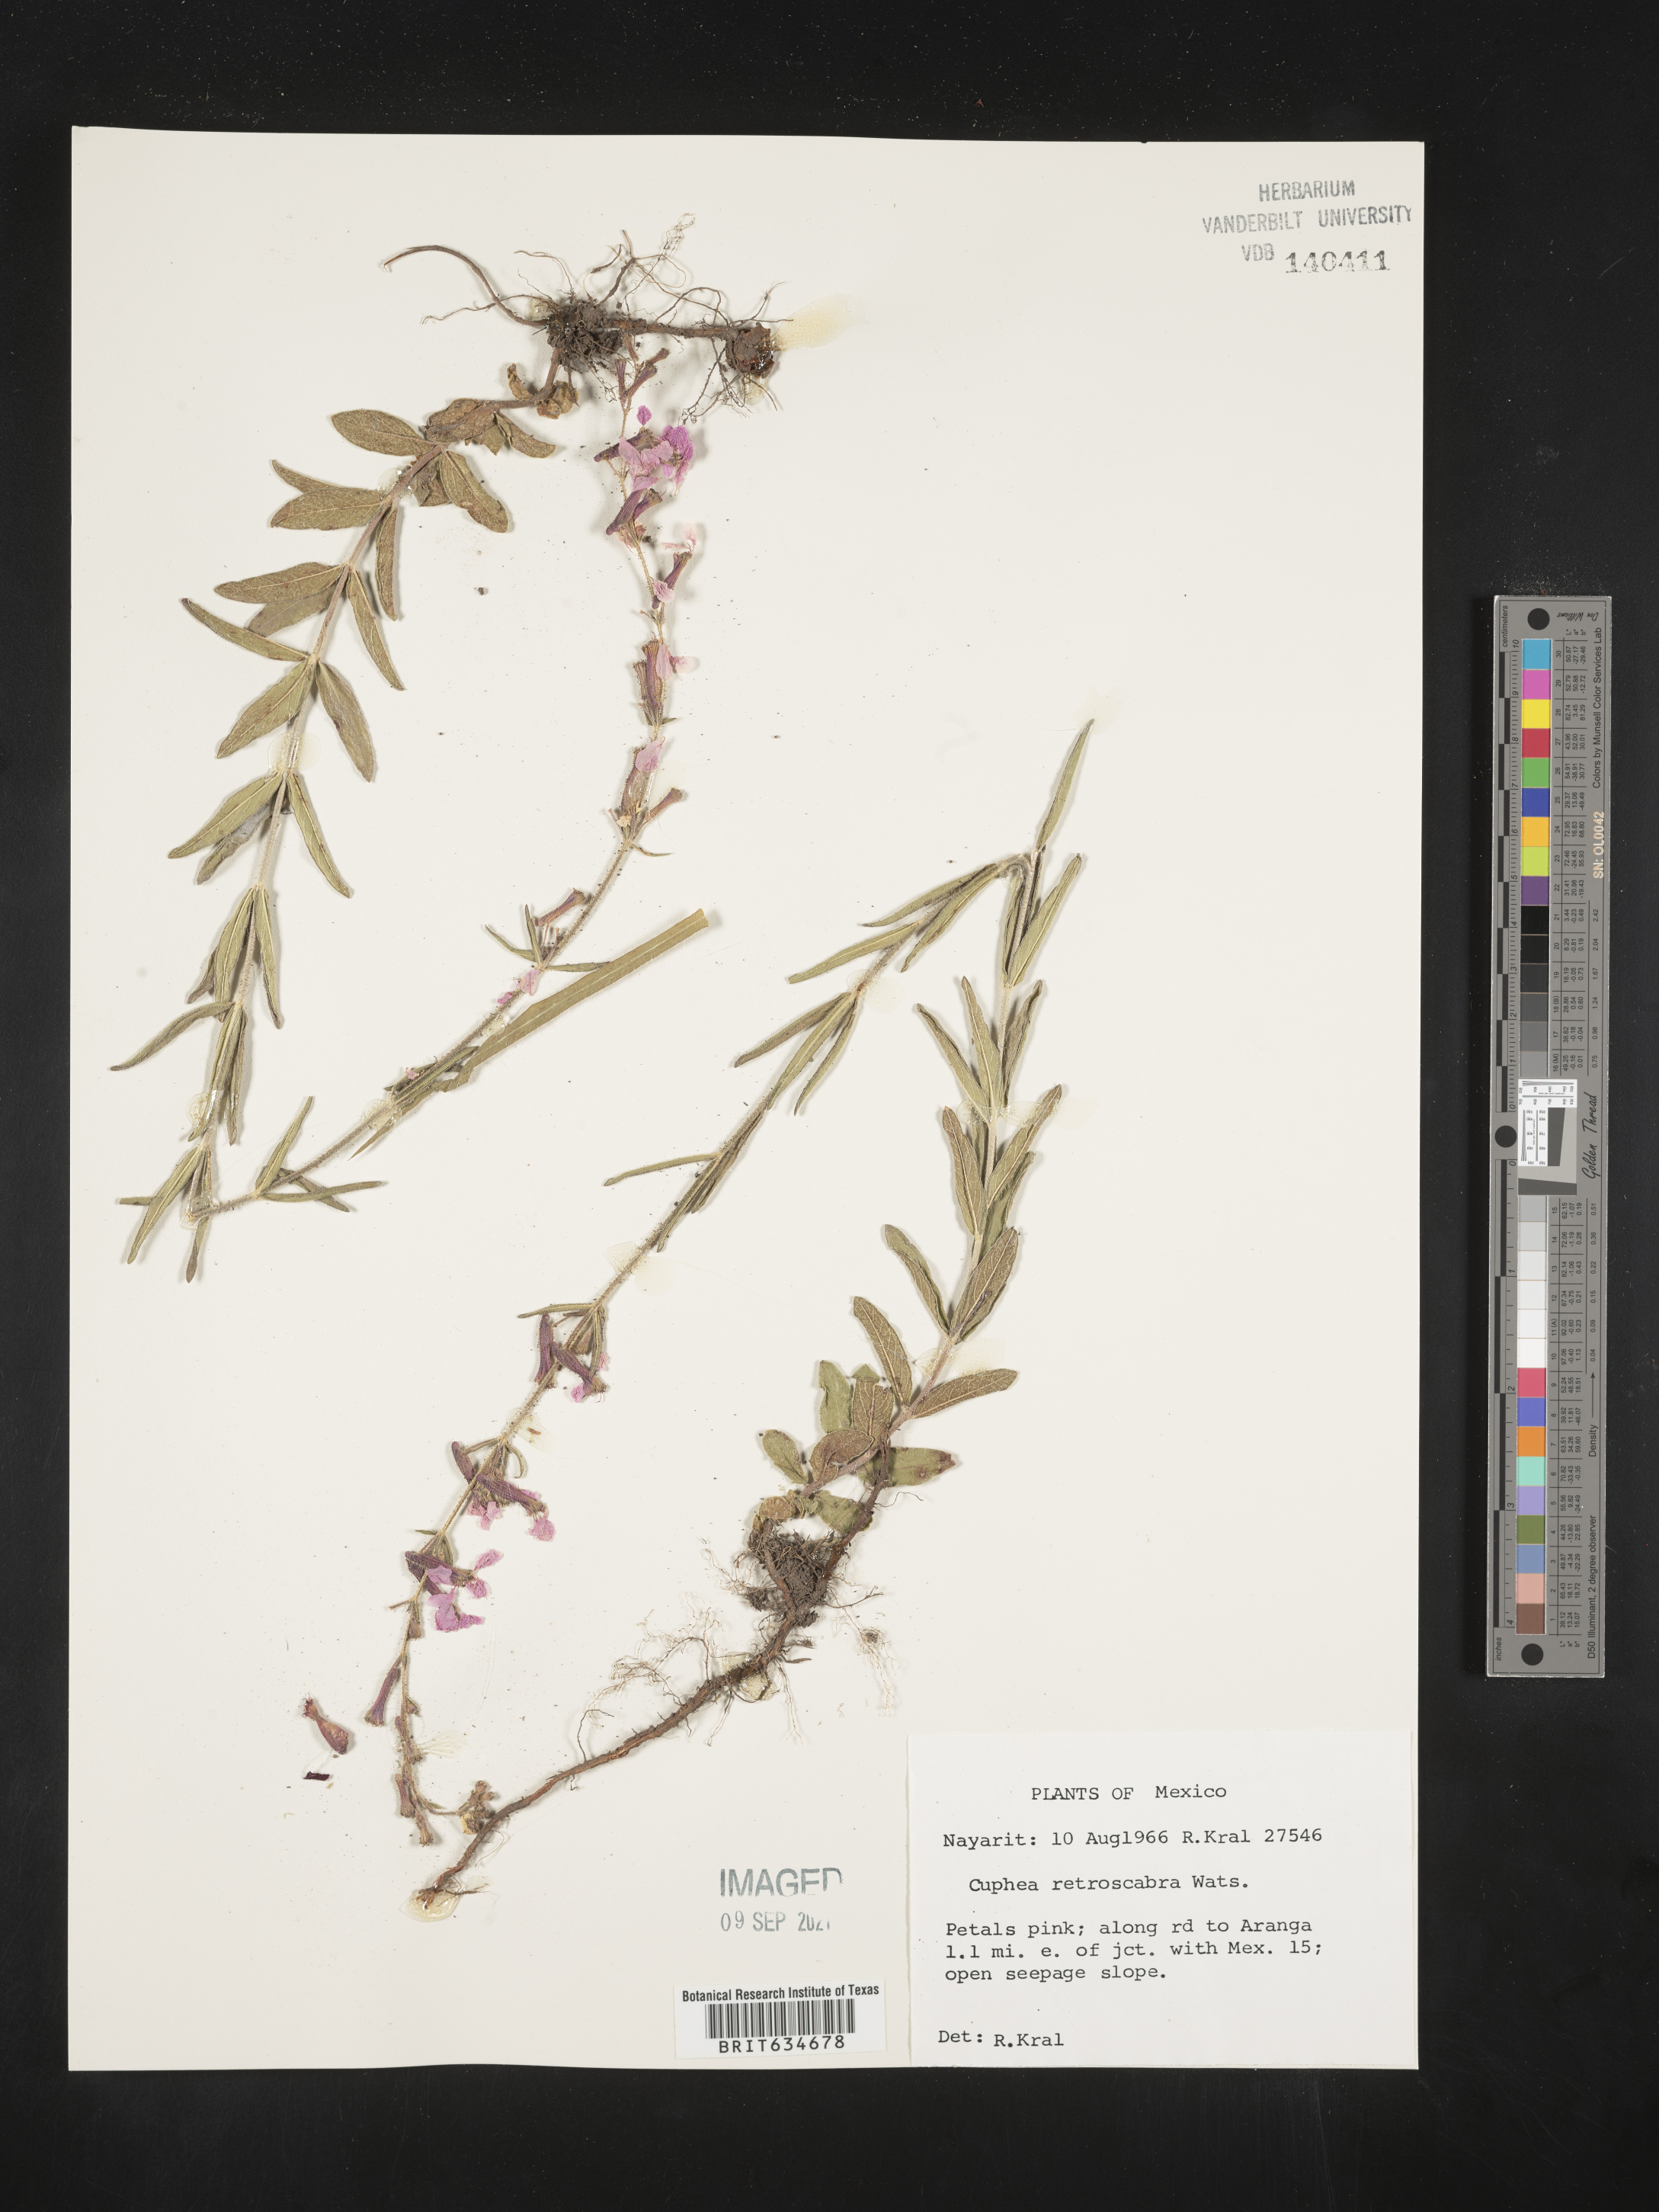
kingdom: Plantae
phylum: Tracheophyta
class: Magnoliopsida
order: Myrtales
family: Lythraceae
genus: Cuphea
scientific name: Cuphea
